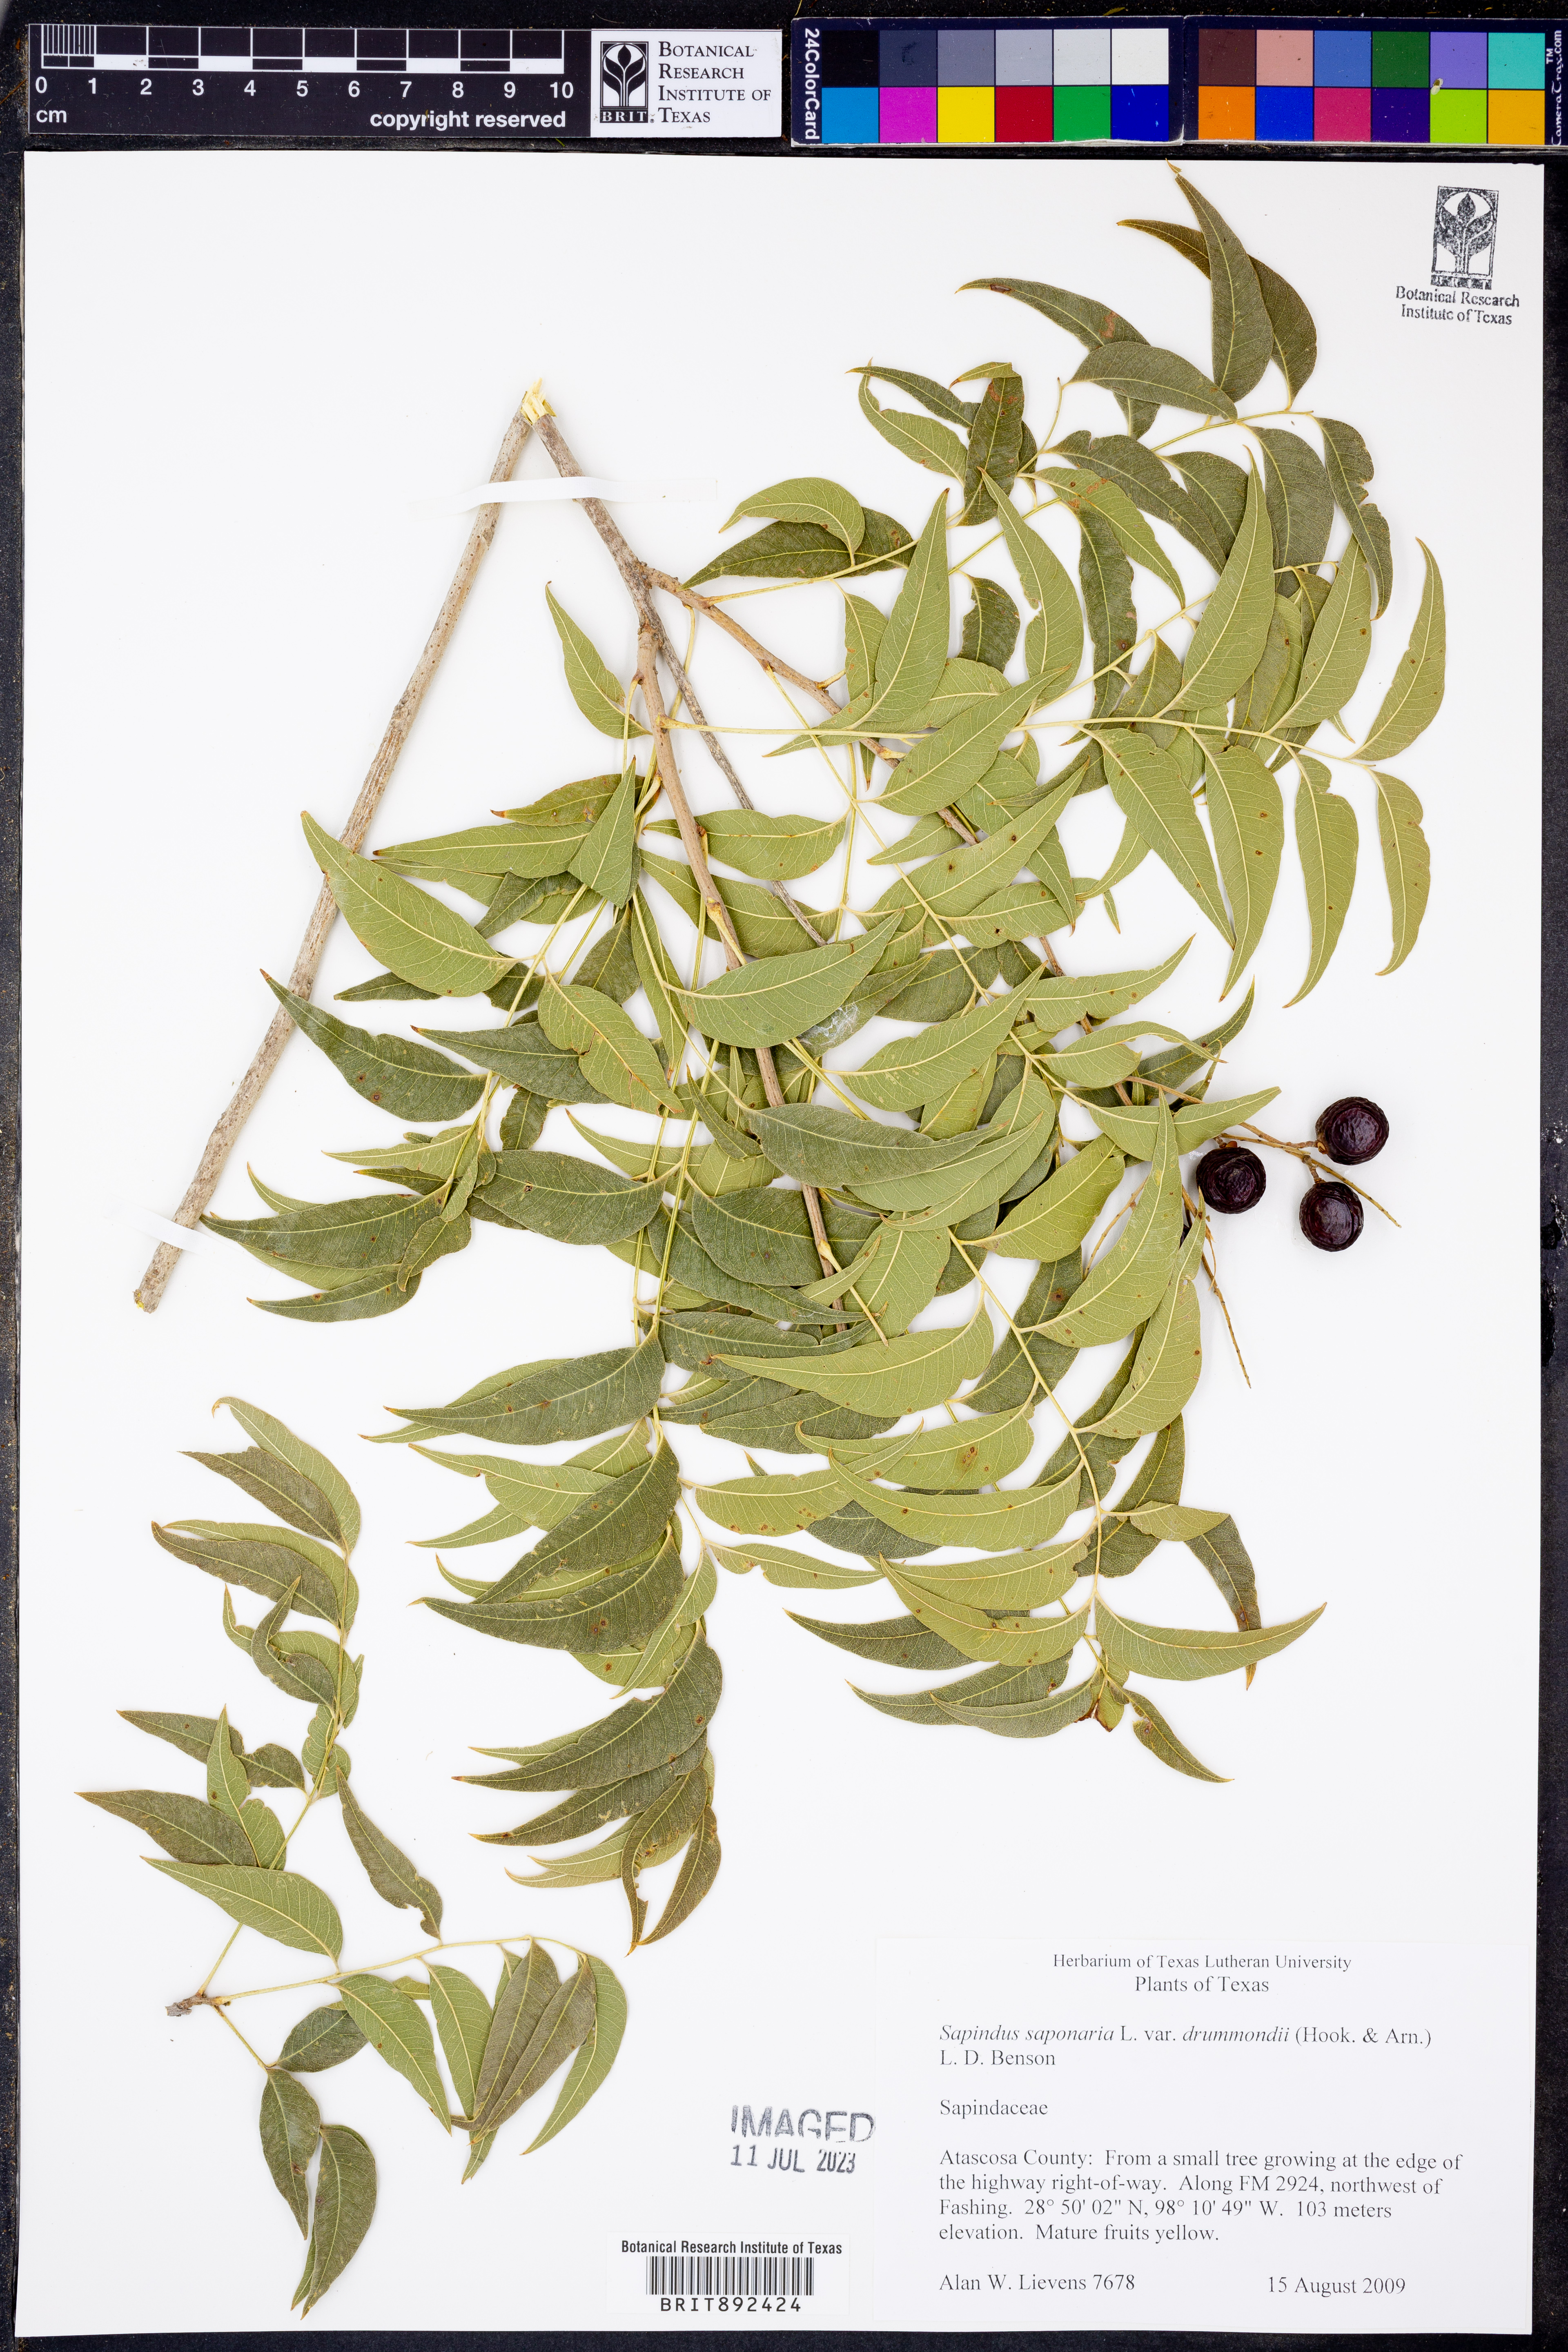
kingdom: Plantae
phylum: Tracheophyta
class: Magnoliopsida
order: Sapindales
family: Sapindaceae
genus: Sapindus
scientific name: Sapindus drummondii
